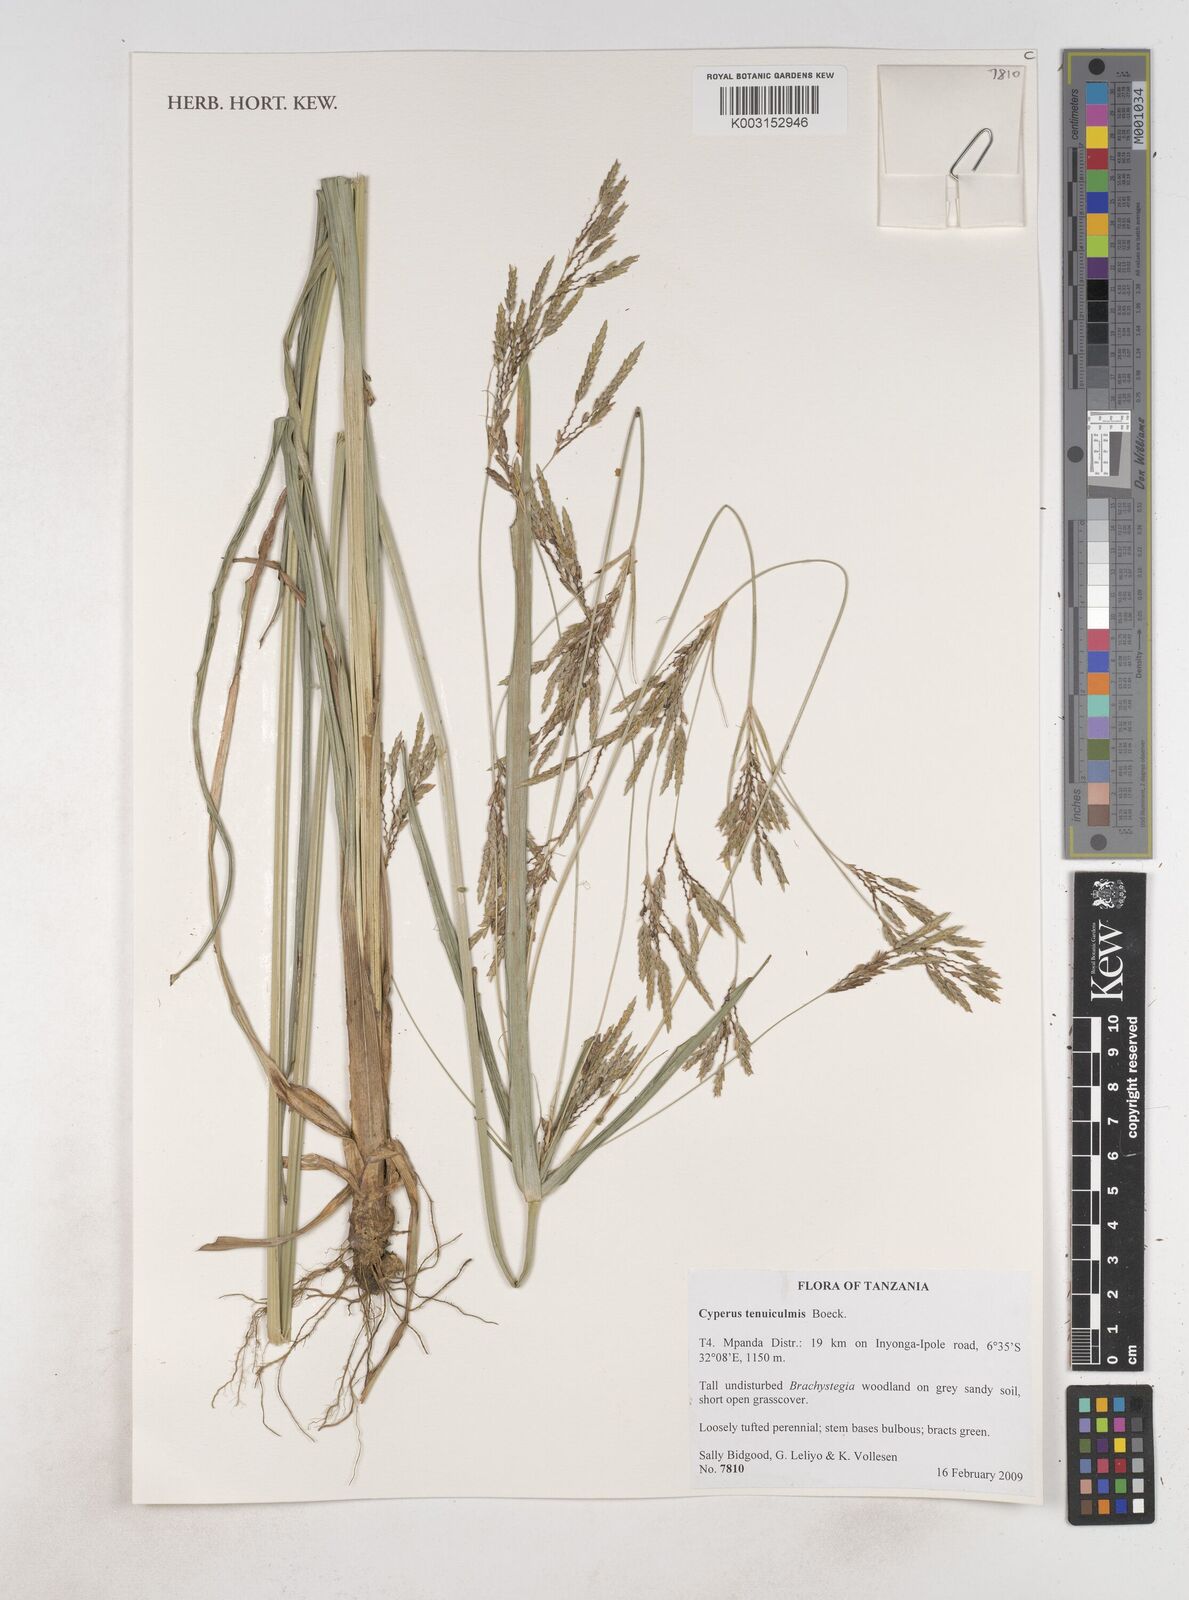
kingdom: Plantae
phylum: Tracheophyta
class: Liliopsida
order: Poales
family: Cyperaceae
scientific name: Cyperaceae
